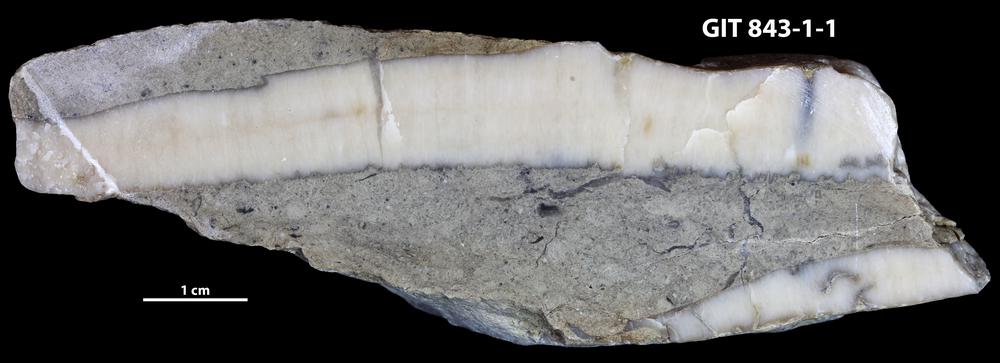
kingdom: Animalia
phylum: Cnidaria
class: Anthozoa
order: Heliolitina
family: Coccoserididae
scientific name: Coccoserididae
